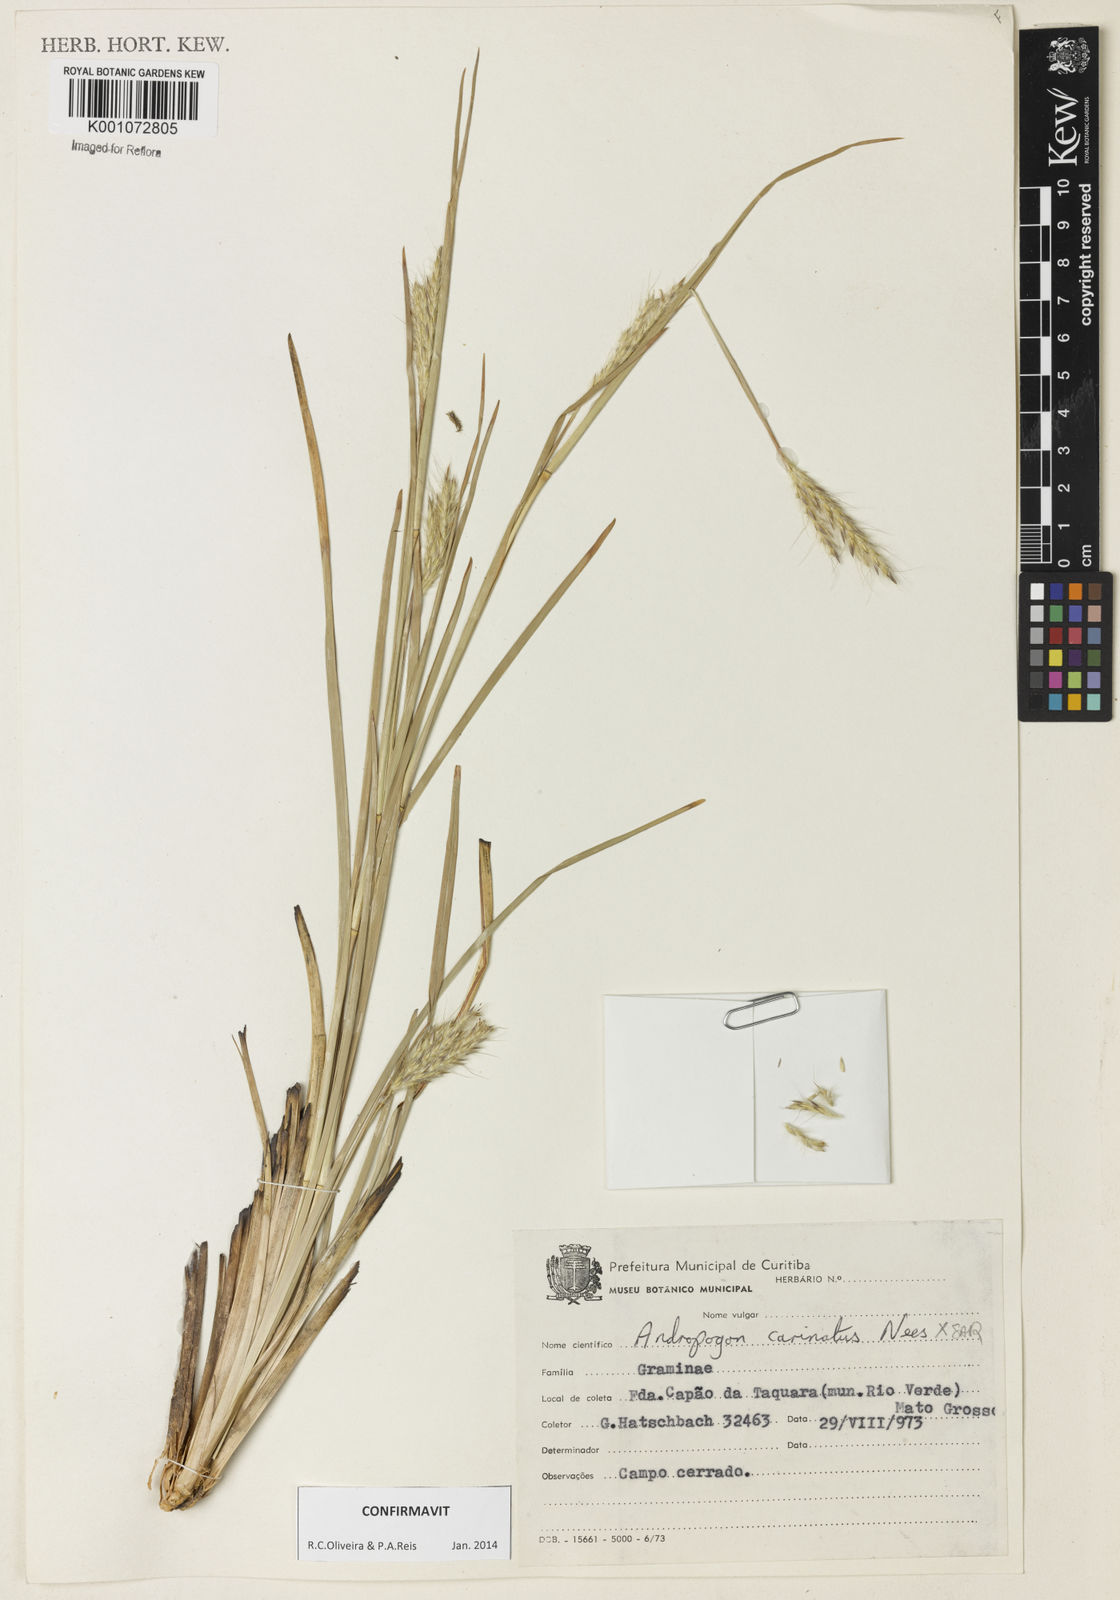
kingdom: Plantae
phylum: Tracheophyta
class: Liliopsida
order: Poales
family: Poaceae
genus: Andropogon
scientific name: Andropogon carinatus
